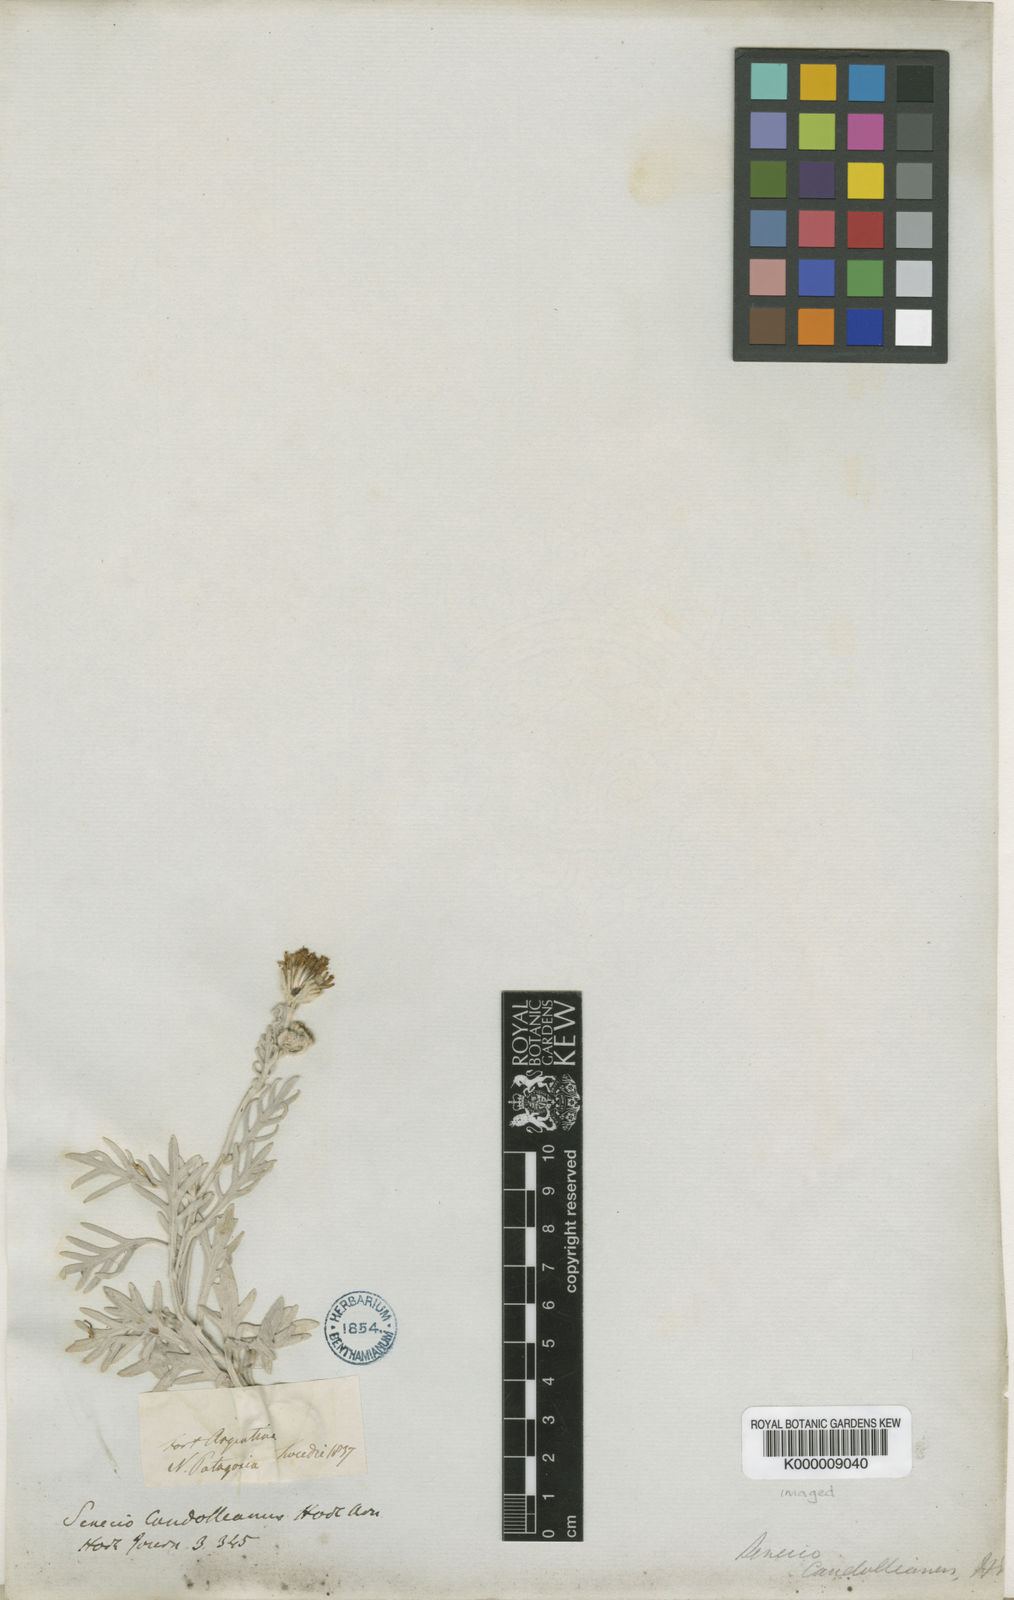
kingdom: Plantae
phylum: Tracheophyta
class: Magnoliopsida
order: Asterales
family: Asteraceae
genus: Senecio
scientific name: Senecio leucopeplus
